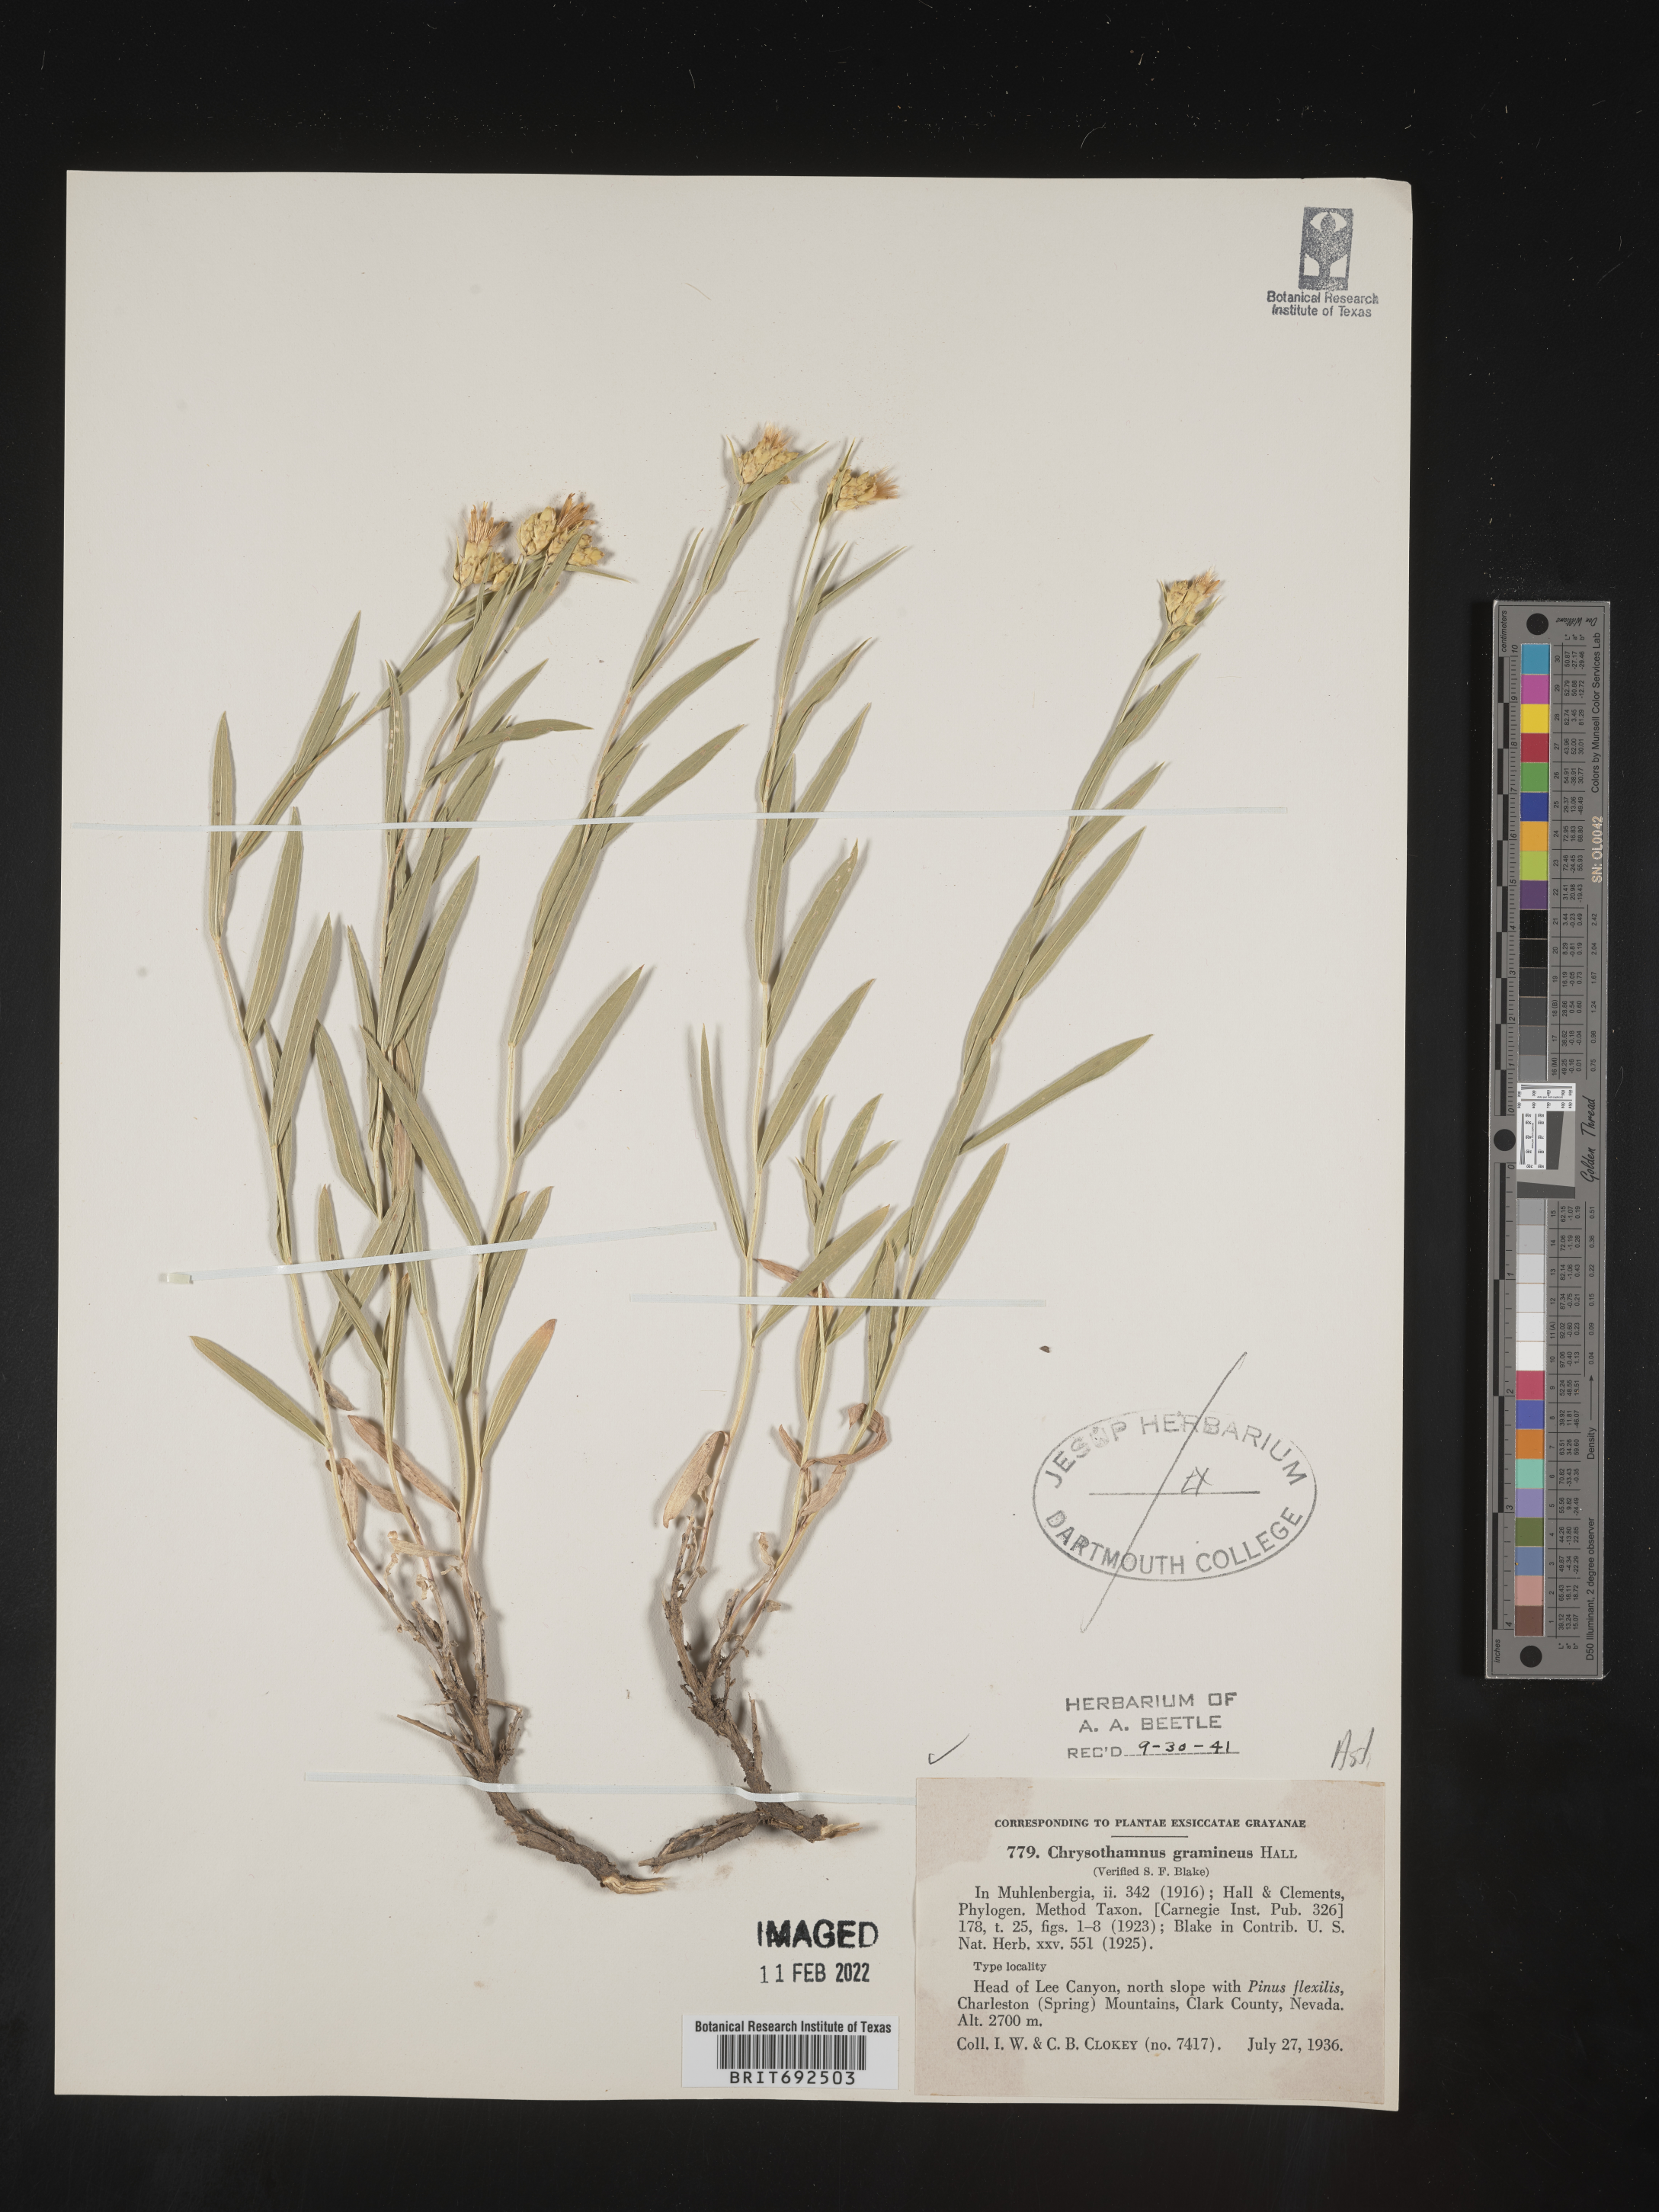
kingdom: Plantae
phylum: Tracheophyta
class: Magnoliopsida
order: Asterales
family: Asteraceae
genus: Cuniculotinus
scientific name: Cuniculotinus
